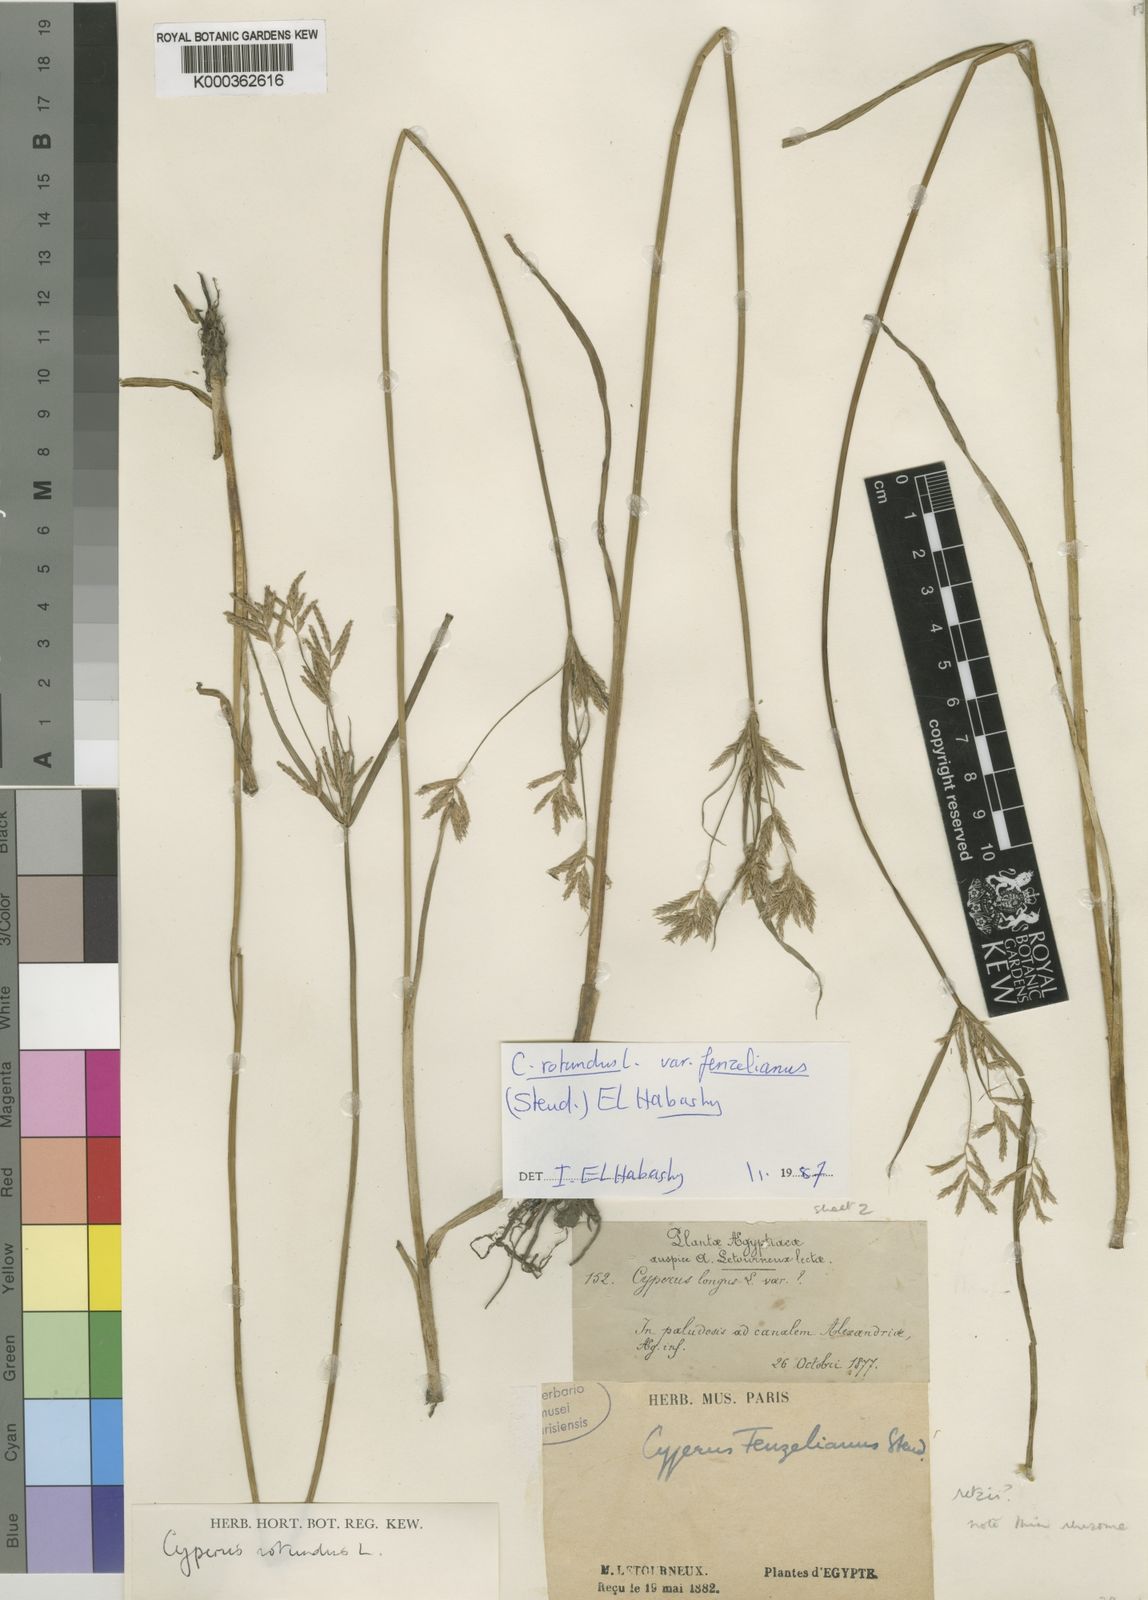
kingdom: Plantae
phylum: Tracheophyta
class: Liliopsida
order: Poales
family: Cyperaceae
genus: Cyperus
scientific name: Cyperus longus
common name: Galingale
